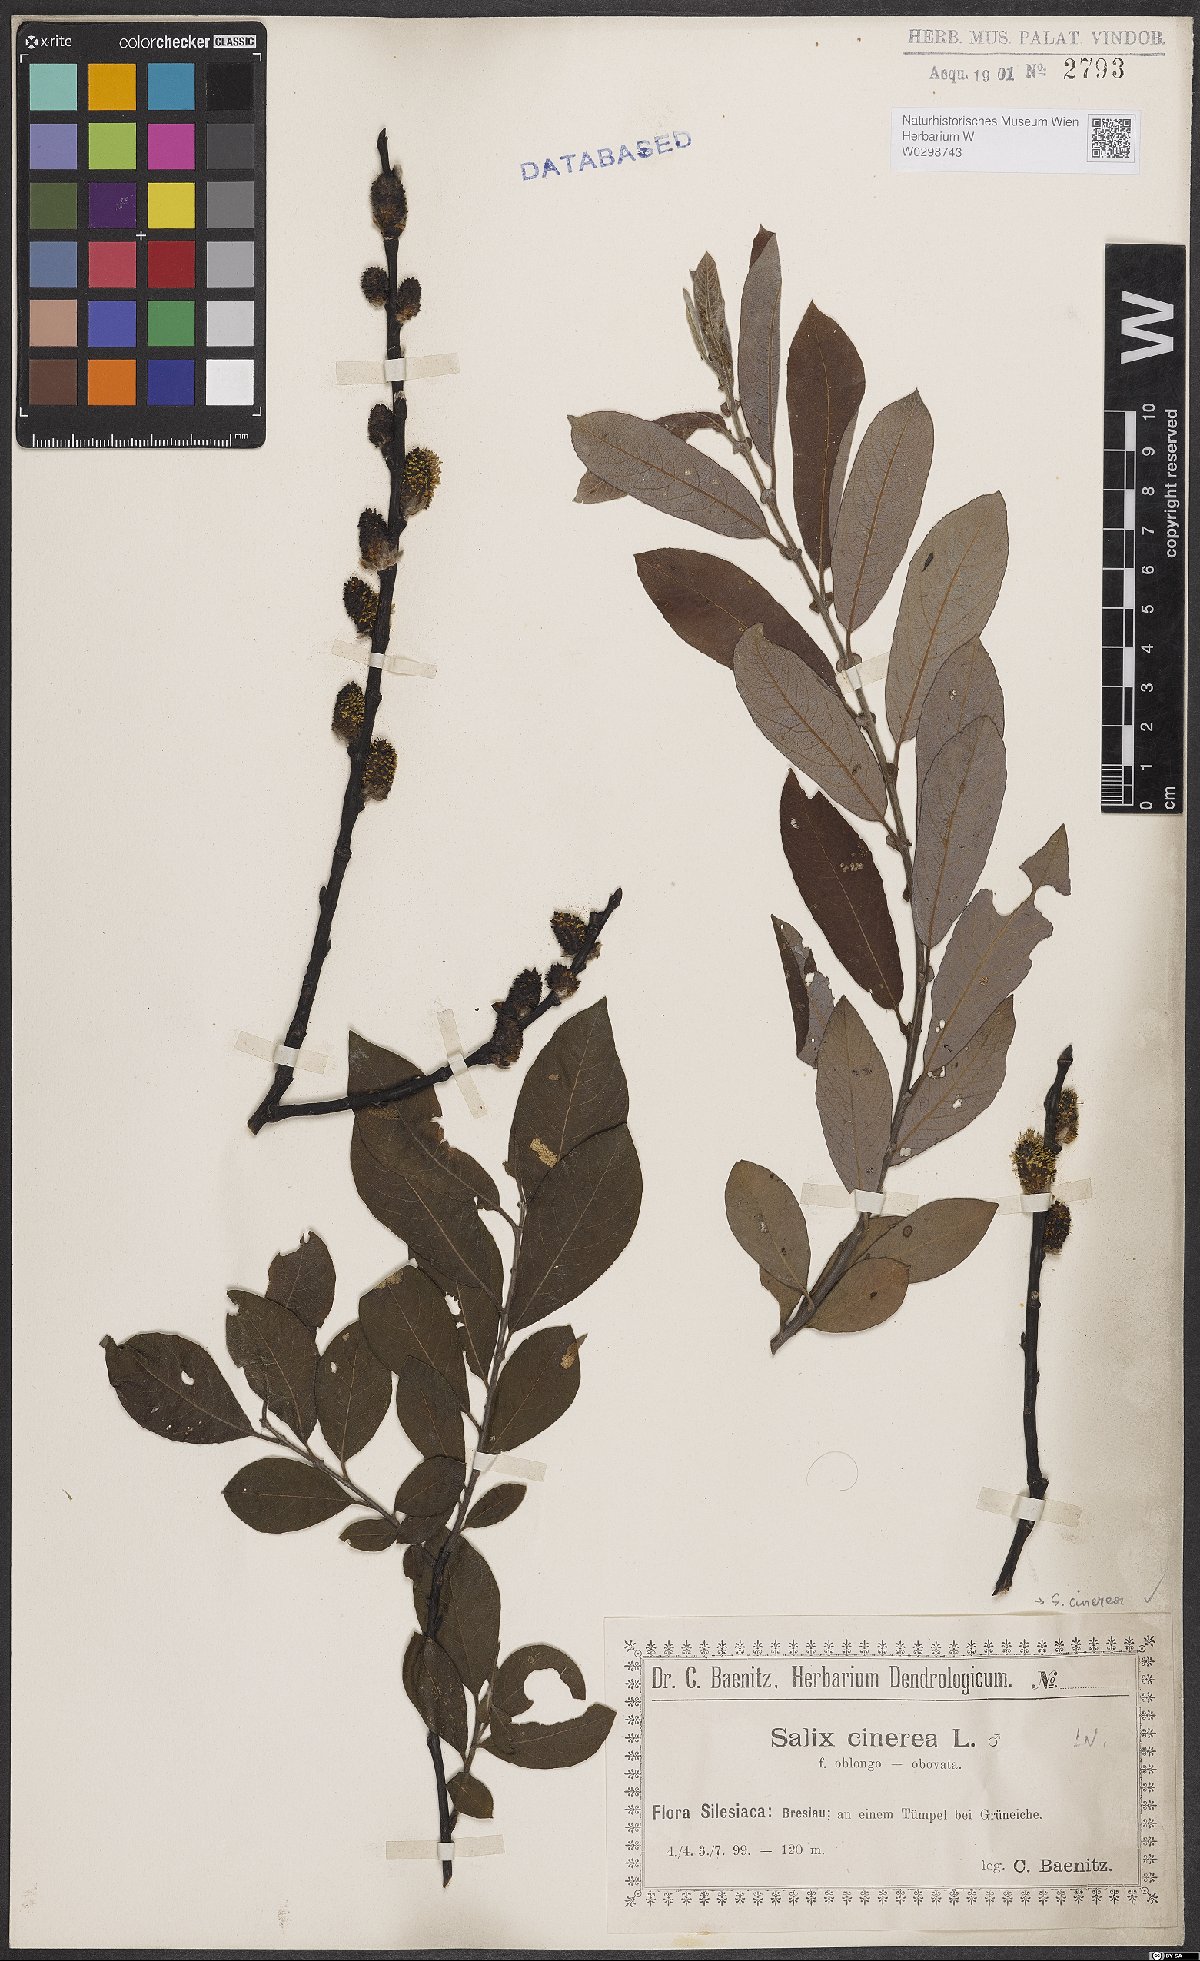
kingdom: Plantae
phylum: Tracheophyta
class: Magnoliopsida
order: Malpighiales
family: Salicaceae
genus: Salix
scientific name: Salix cinerea
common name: Common sallow
